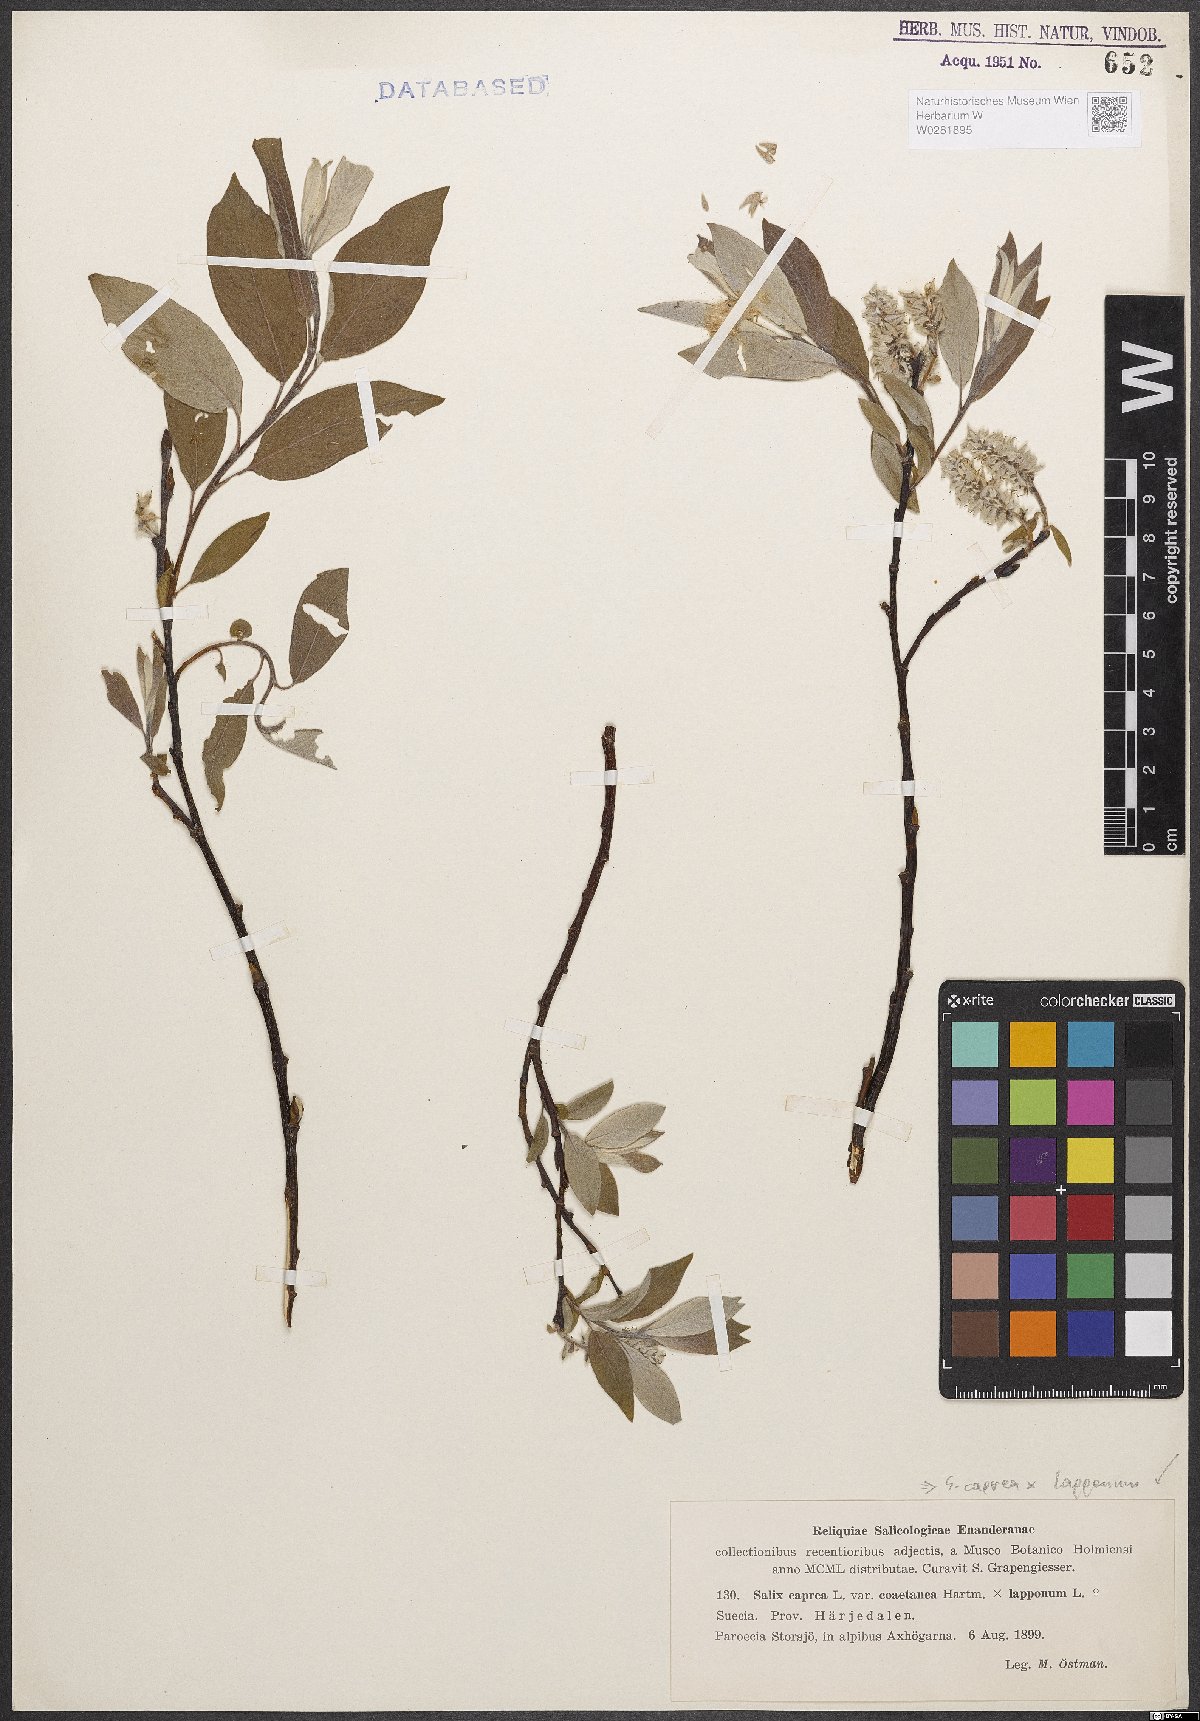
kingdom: Plantae
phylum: Tracheophyta
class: Magnoliopsida
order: Malpighiales
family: Salicaceae
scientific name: Salicaceae
